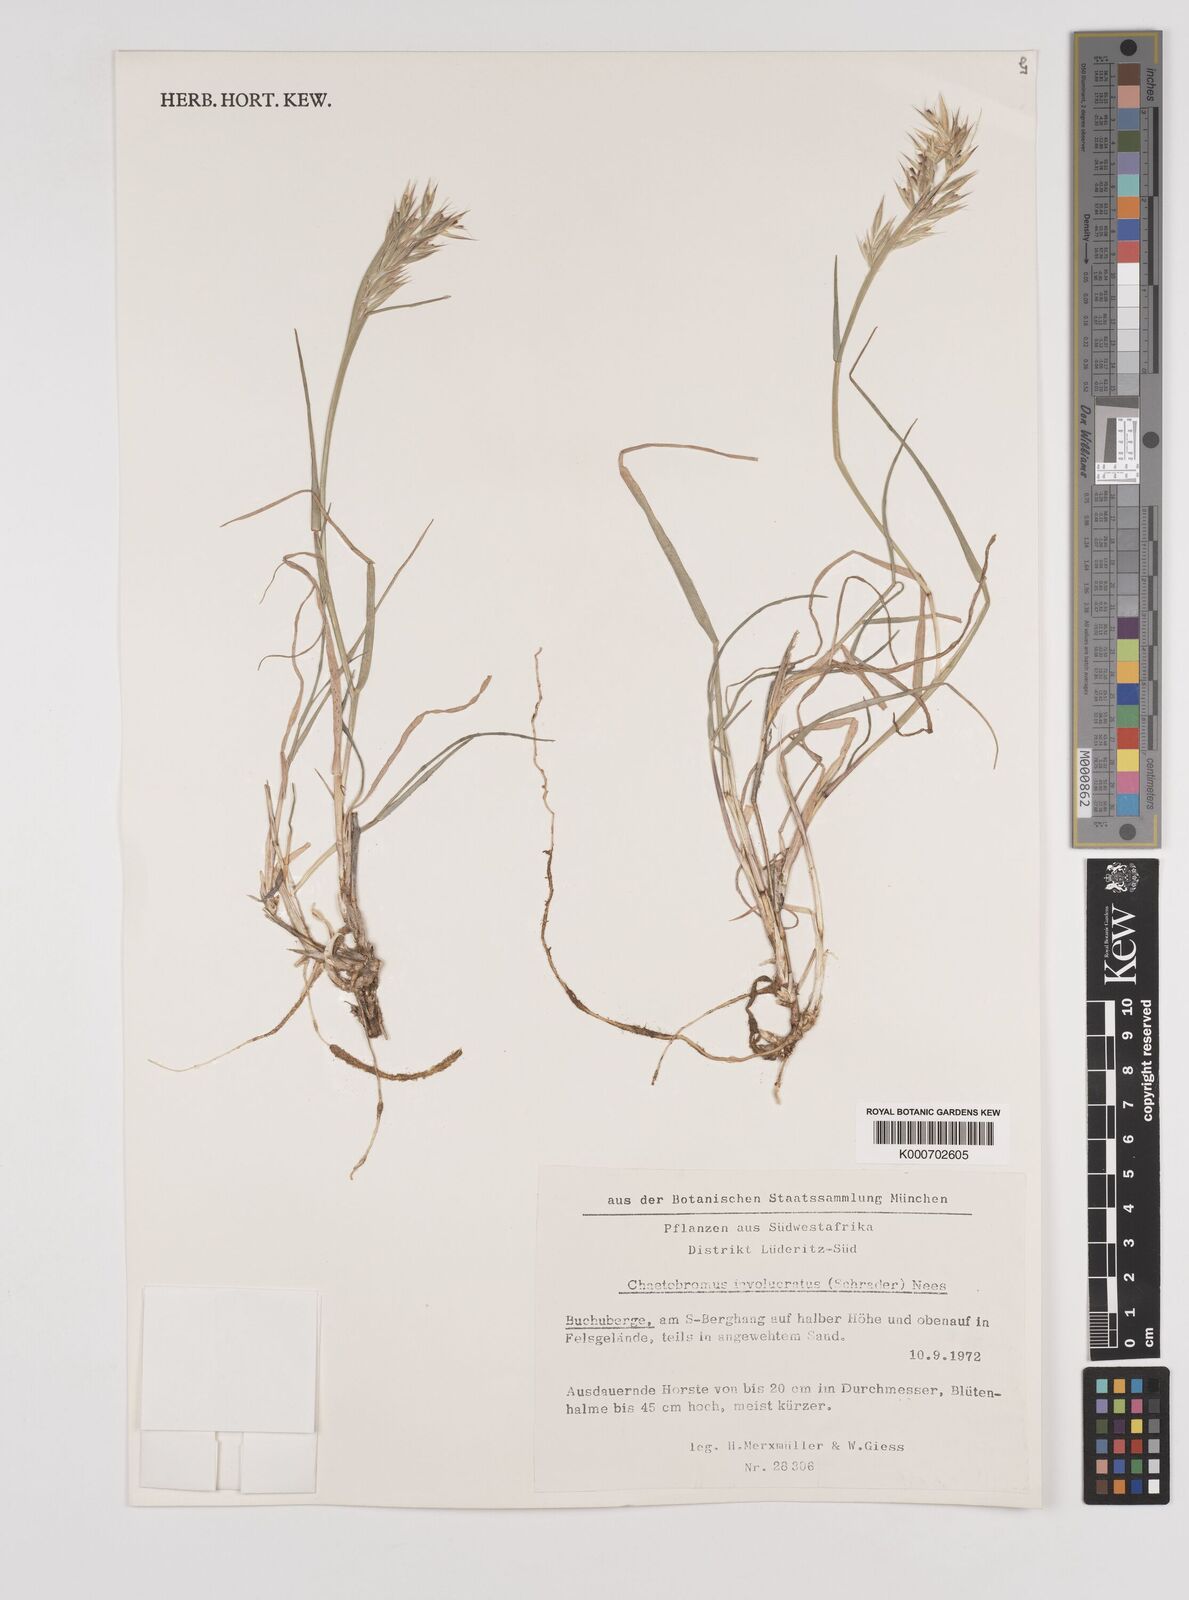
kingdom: Plantae
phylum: Tracheophyta
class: Liliopsida
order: Poales
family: Poaceae
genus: Chaetobromus
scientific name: Chaetobromus involucratus
